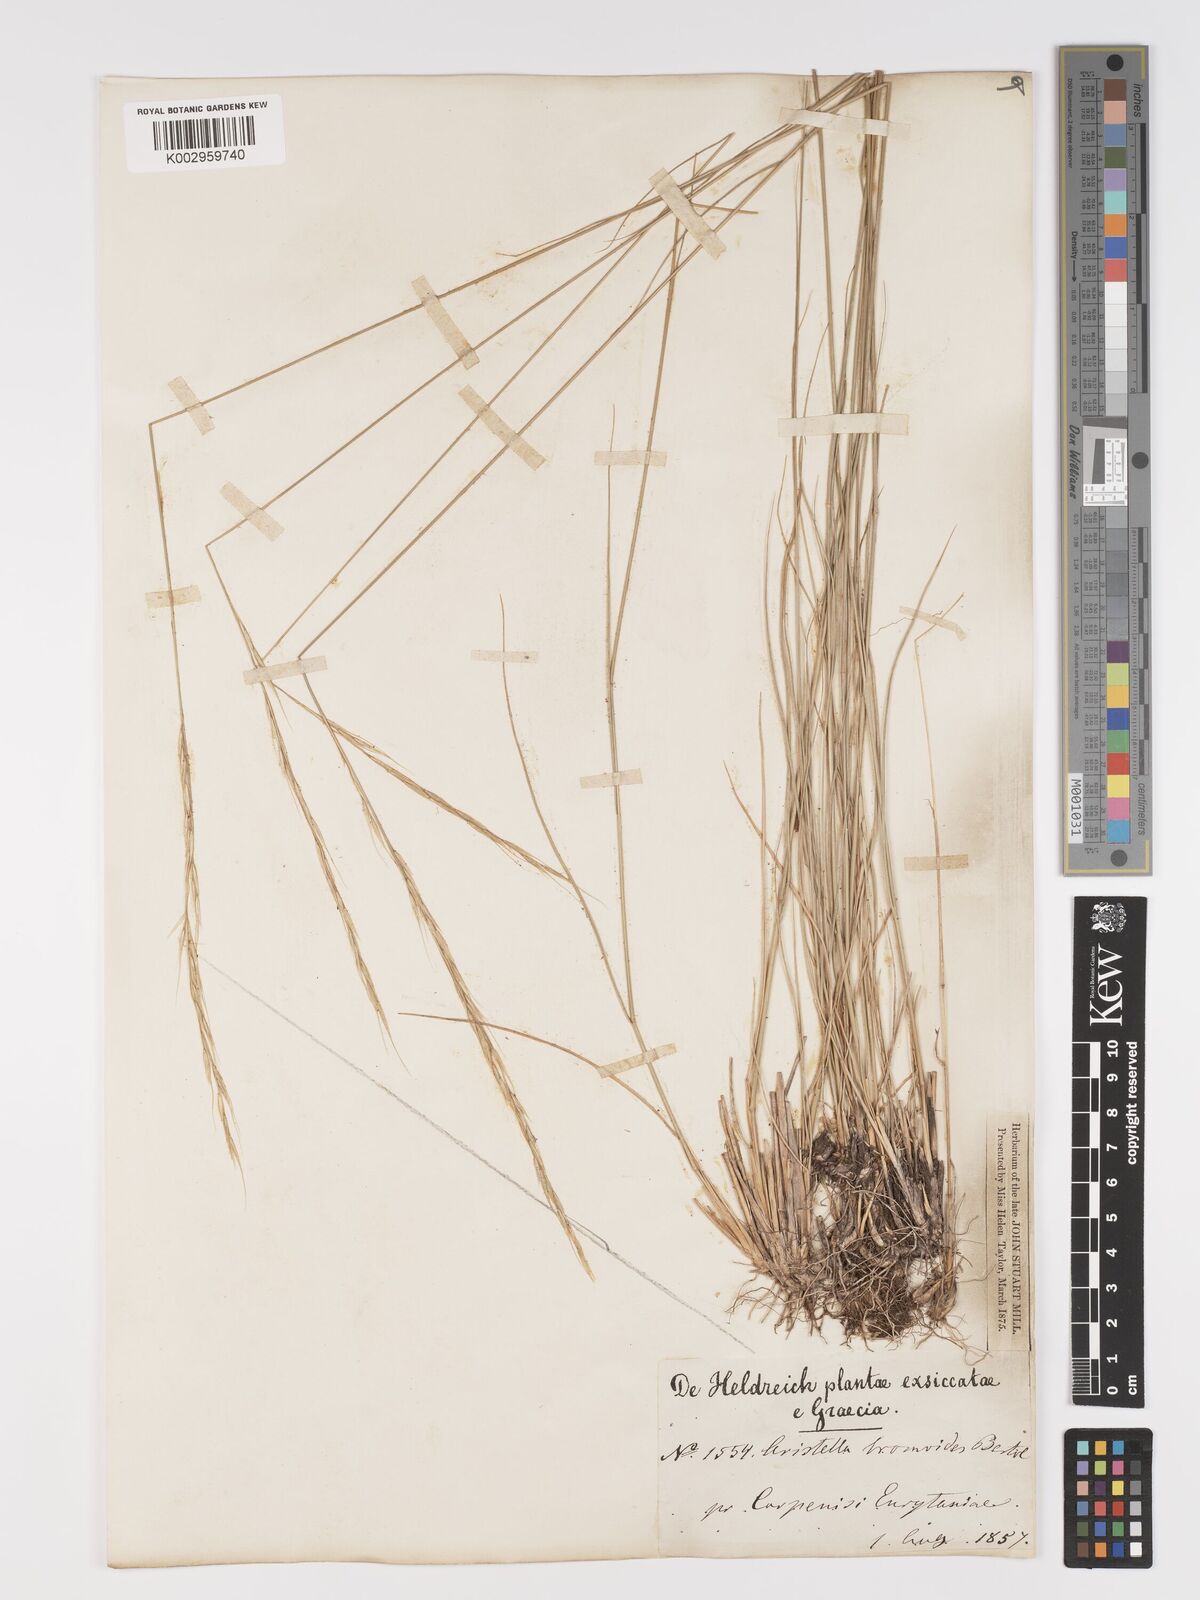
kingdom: Plantae
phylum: Tracheophyta
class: Liliopsida
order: Poales
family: Poaceae
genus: Achnatherum
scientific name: Achnatherum bromoides
